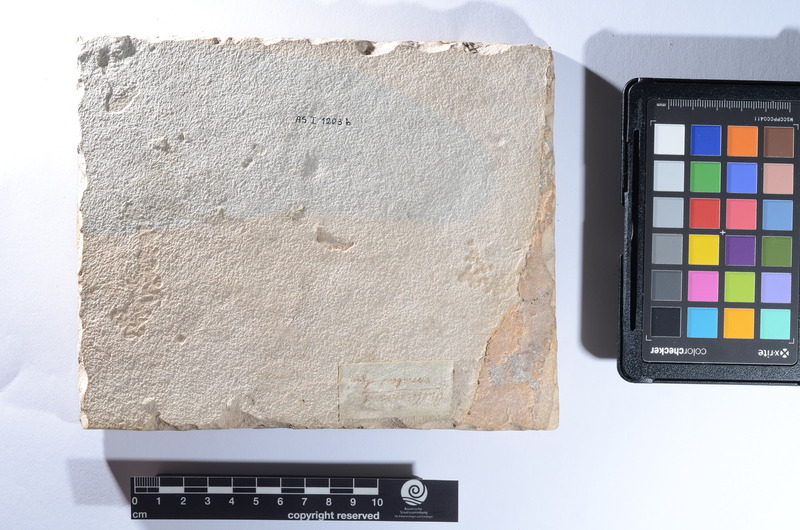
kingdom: Animalia
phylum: Chordata
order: Perciformes
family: Menidae
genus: Mene
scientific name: Mene rhombea
